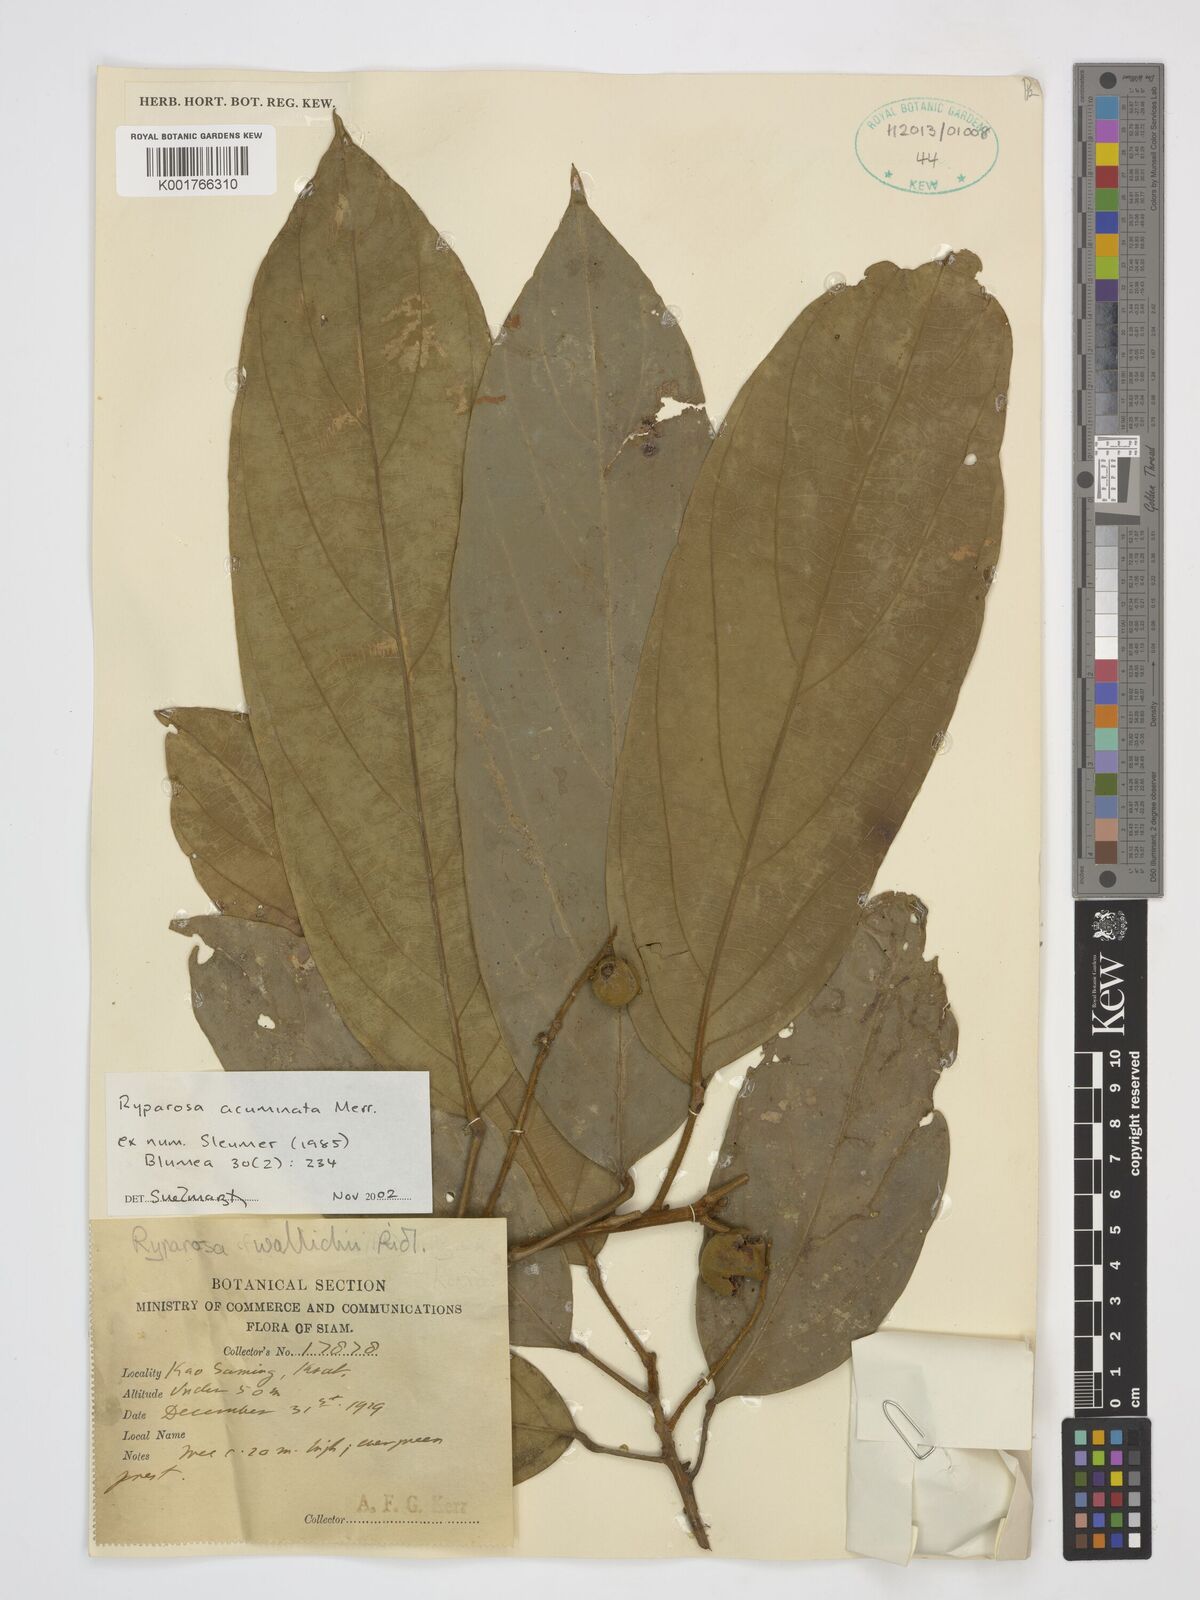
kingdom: Plantae
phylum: Tracheophyta
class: Magnoliopsida
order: Malpighiales
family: Achariaceae
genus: Ryparosa
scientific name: Ryparosa acuminata
